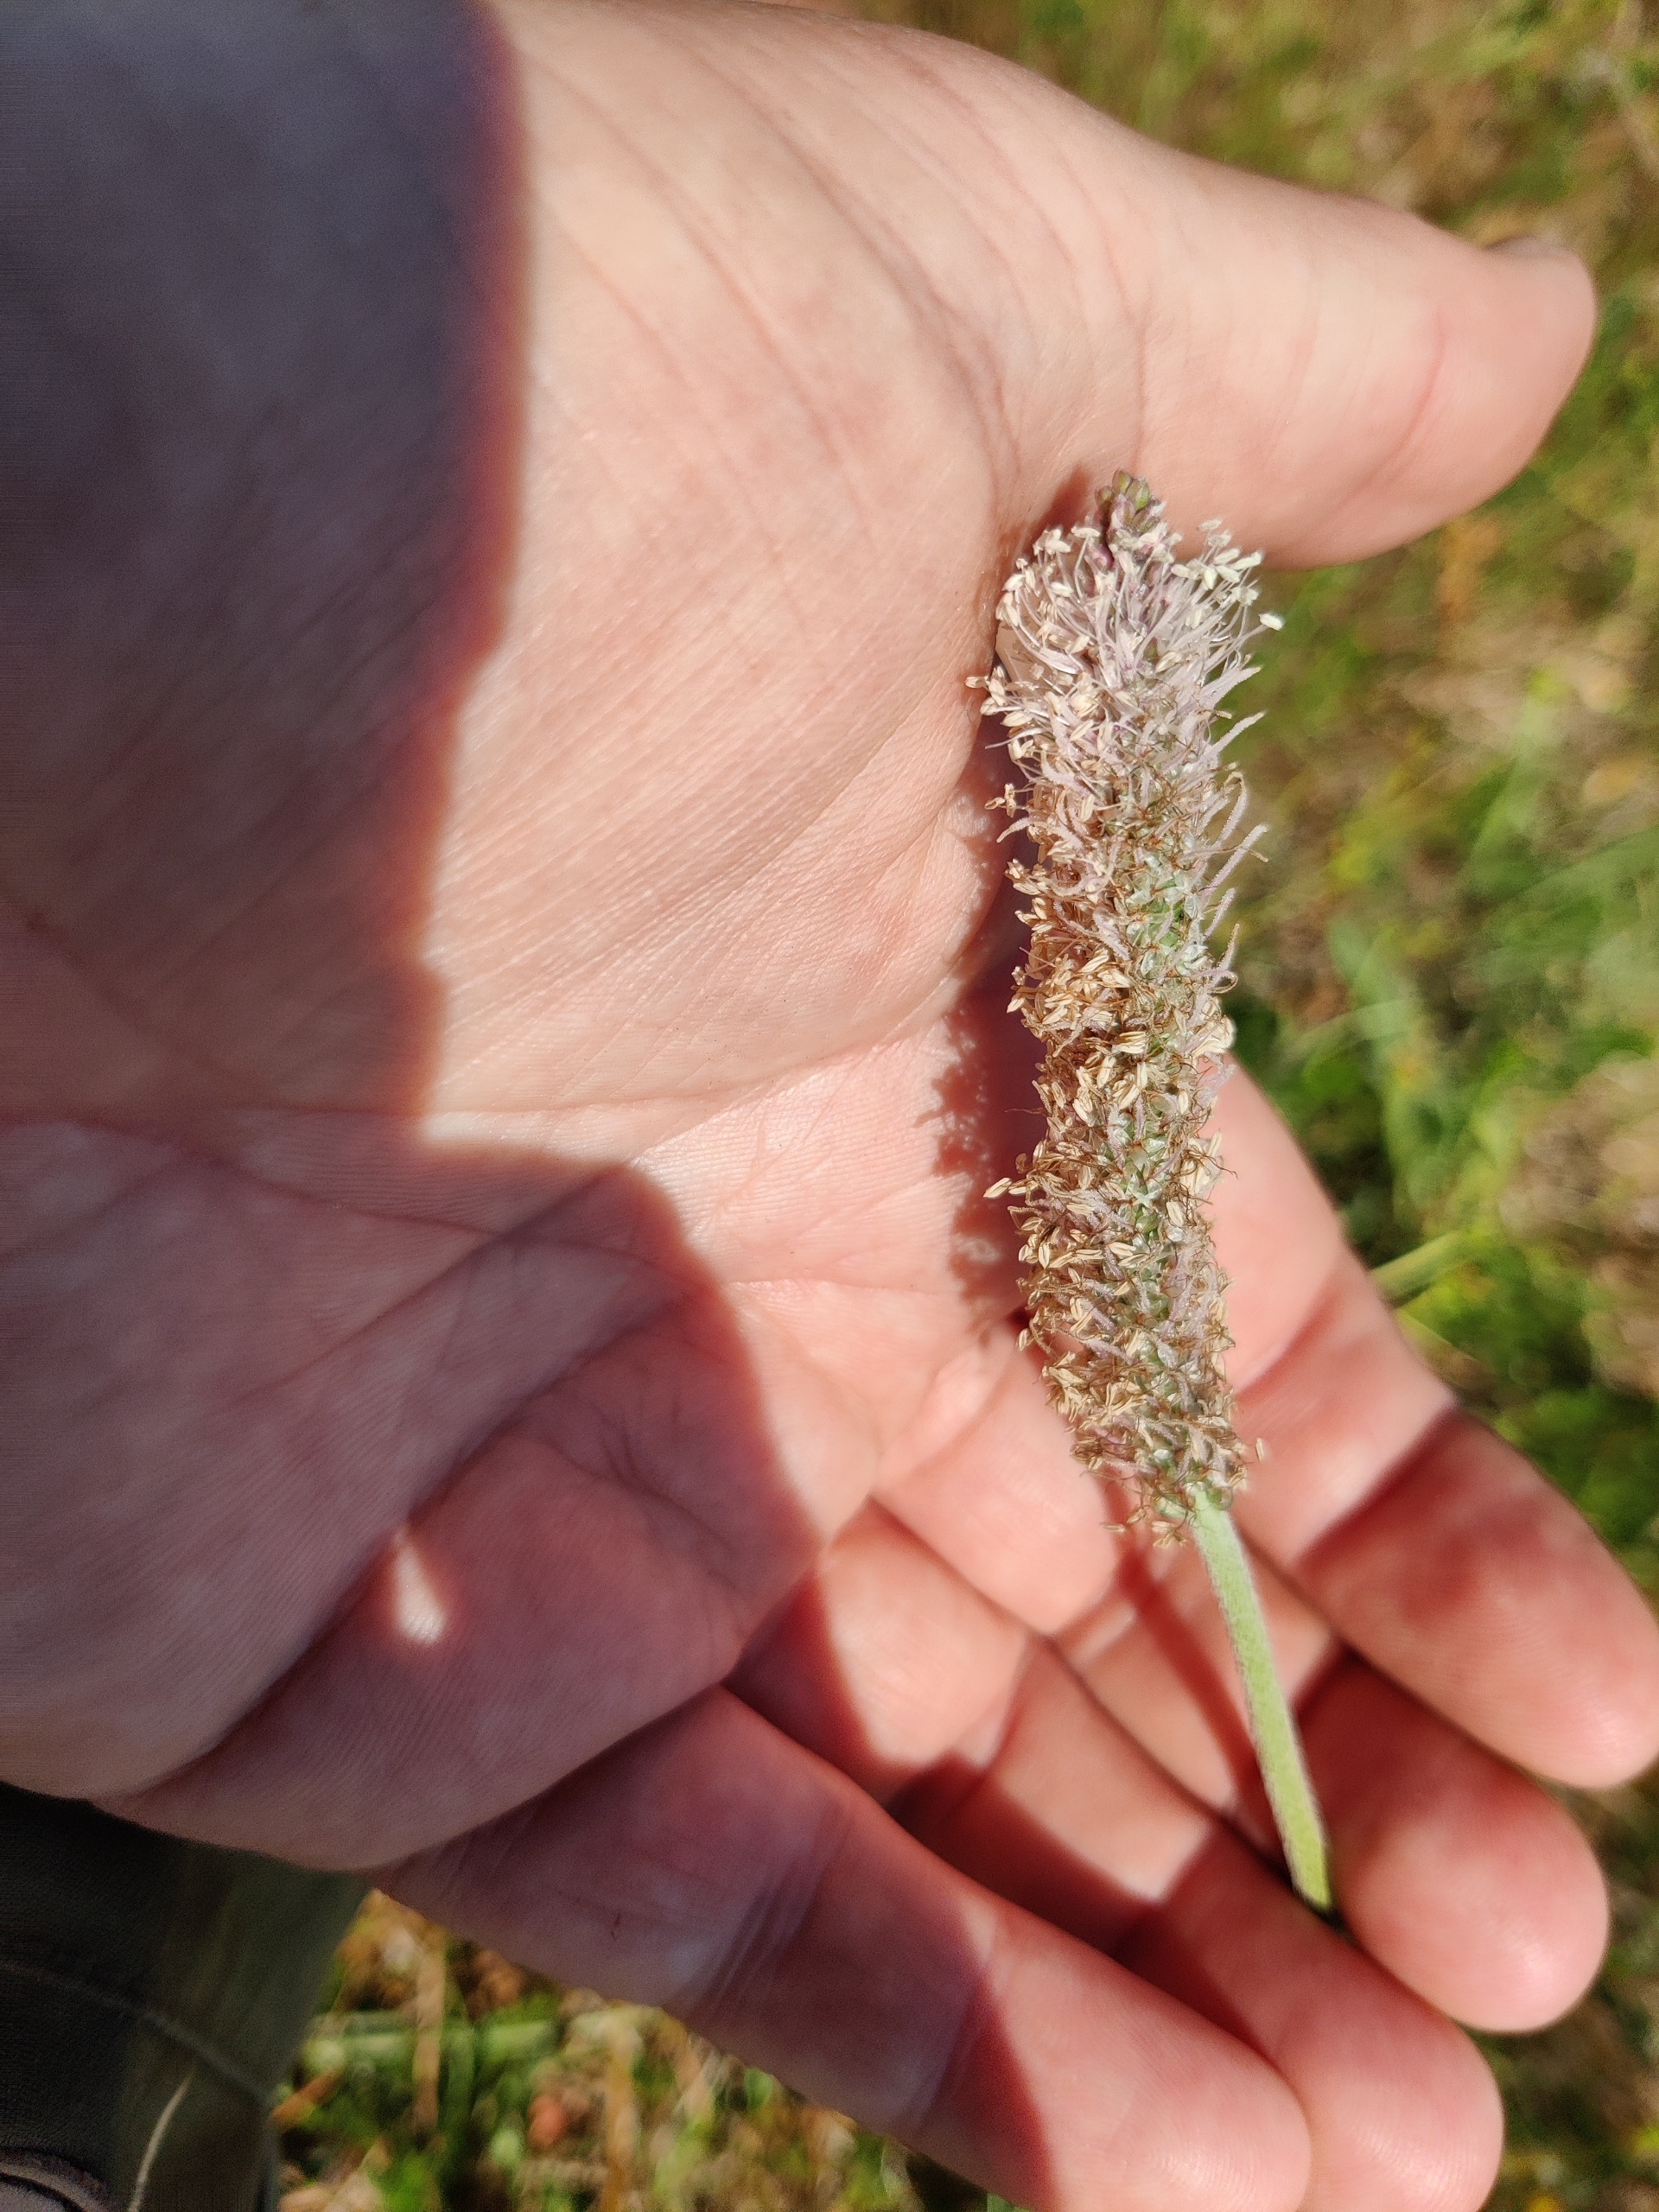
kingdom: Plantae
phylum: Tracheophyta
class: Magnoliopsida
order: Lamiales
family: Plantaginaceae
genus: Plantago
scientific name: Plantago media
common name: Dunet vejbred
